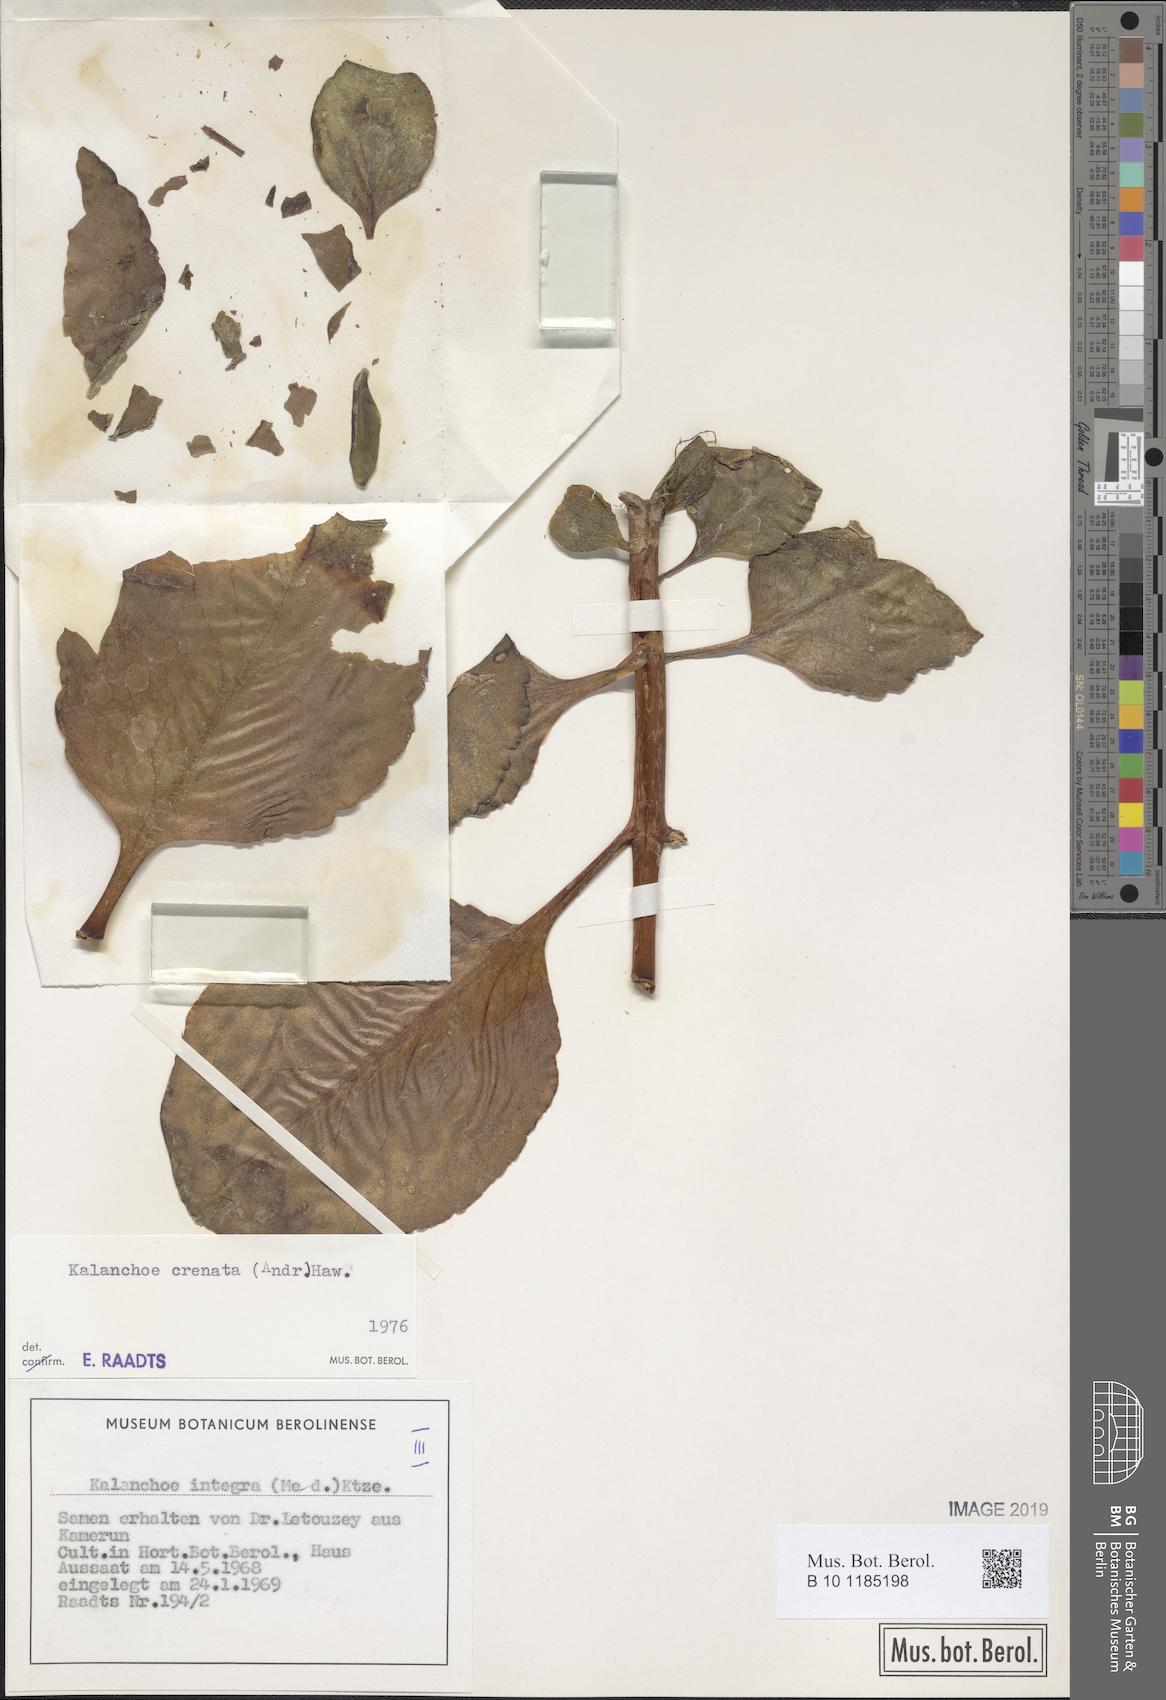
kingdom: Plantae
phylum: Tracheophyta
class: Magnoliopsida
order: Saxifragales
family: Crassulaceae
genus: Kalanchoe
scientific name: Kalanchoe crenata
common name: Neverdie
